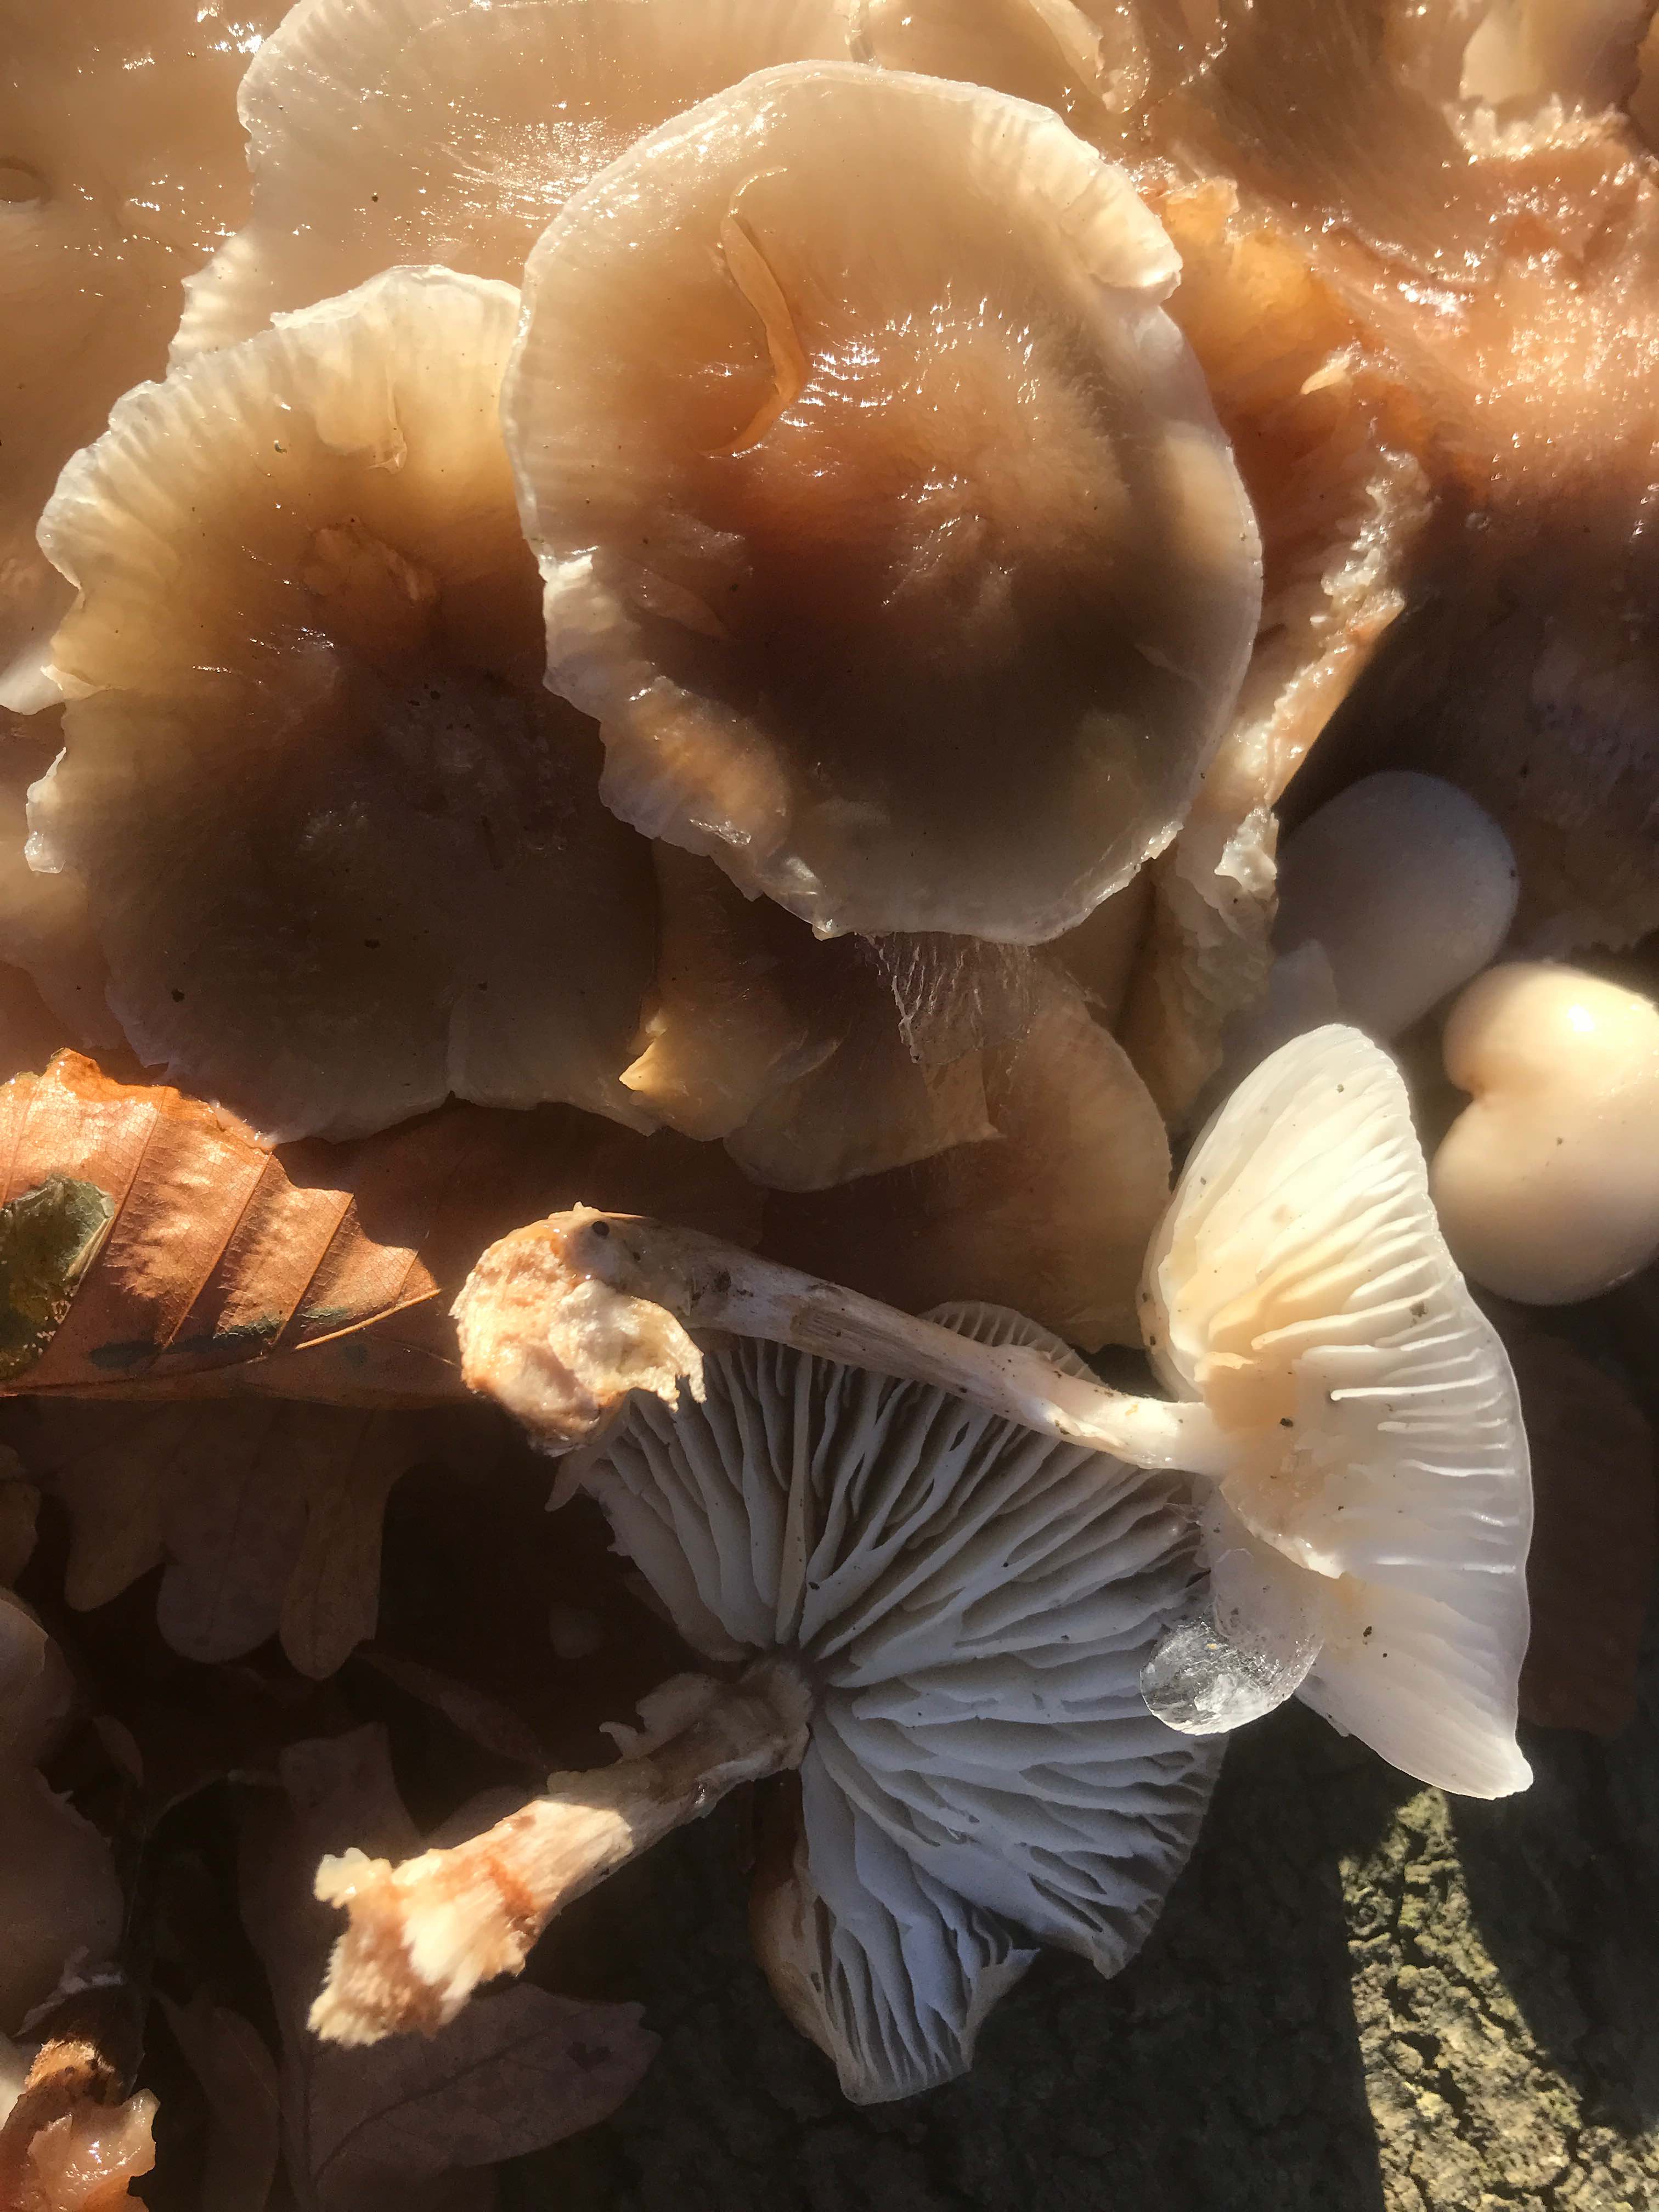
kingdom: Fungi
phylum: Basidiomycota
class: Agaricomycetes
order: Agaricales
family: Physalacriaceae
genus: Mucidula
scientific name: Mucidula mucida
